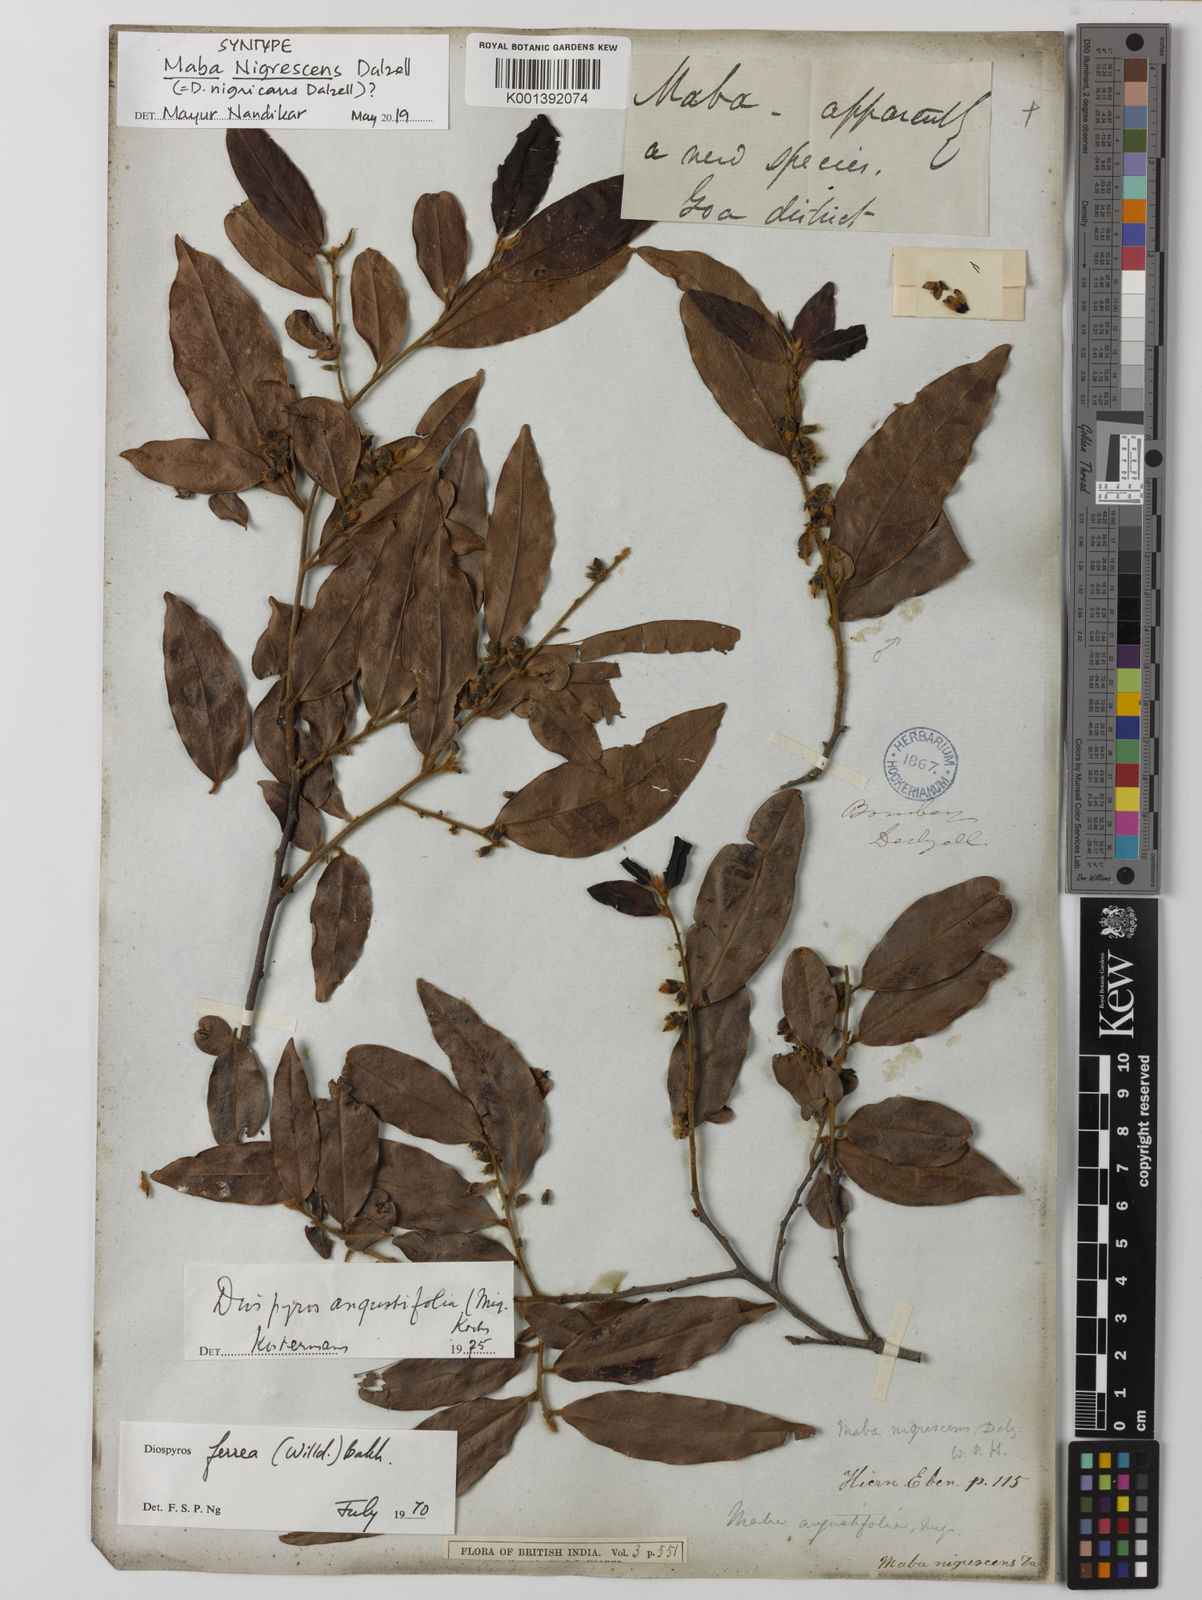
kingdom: Plantae
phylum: Tracheophyta
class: Magnoliopsida
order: Ericales
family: Ebenaceae
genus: Diospyros
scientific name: Diospyros ferrea
